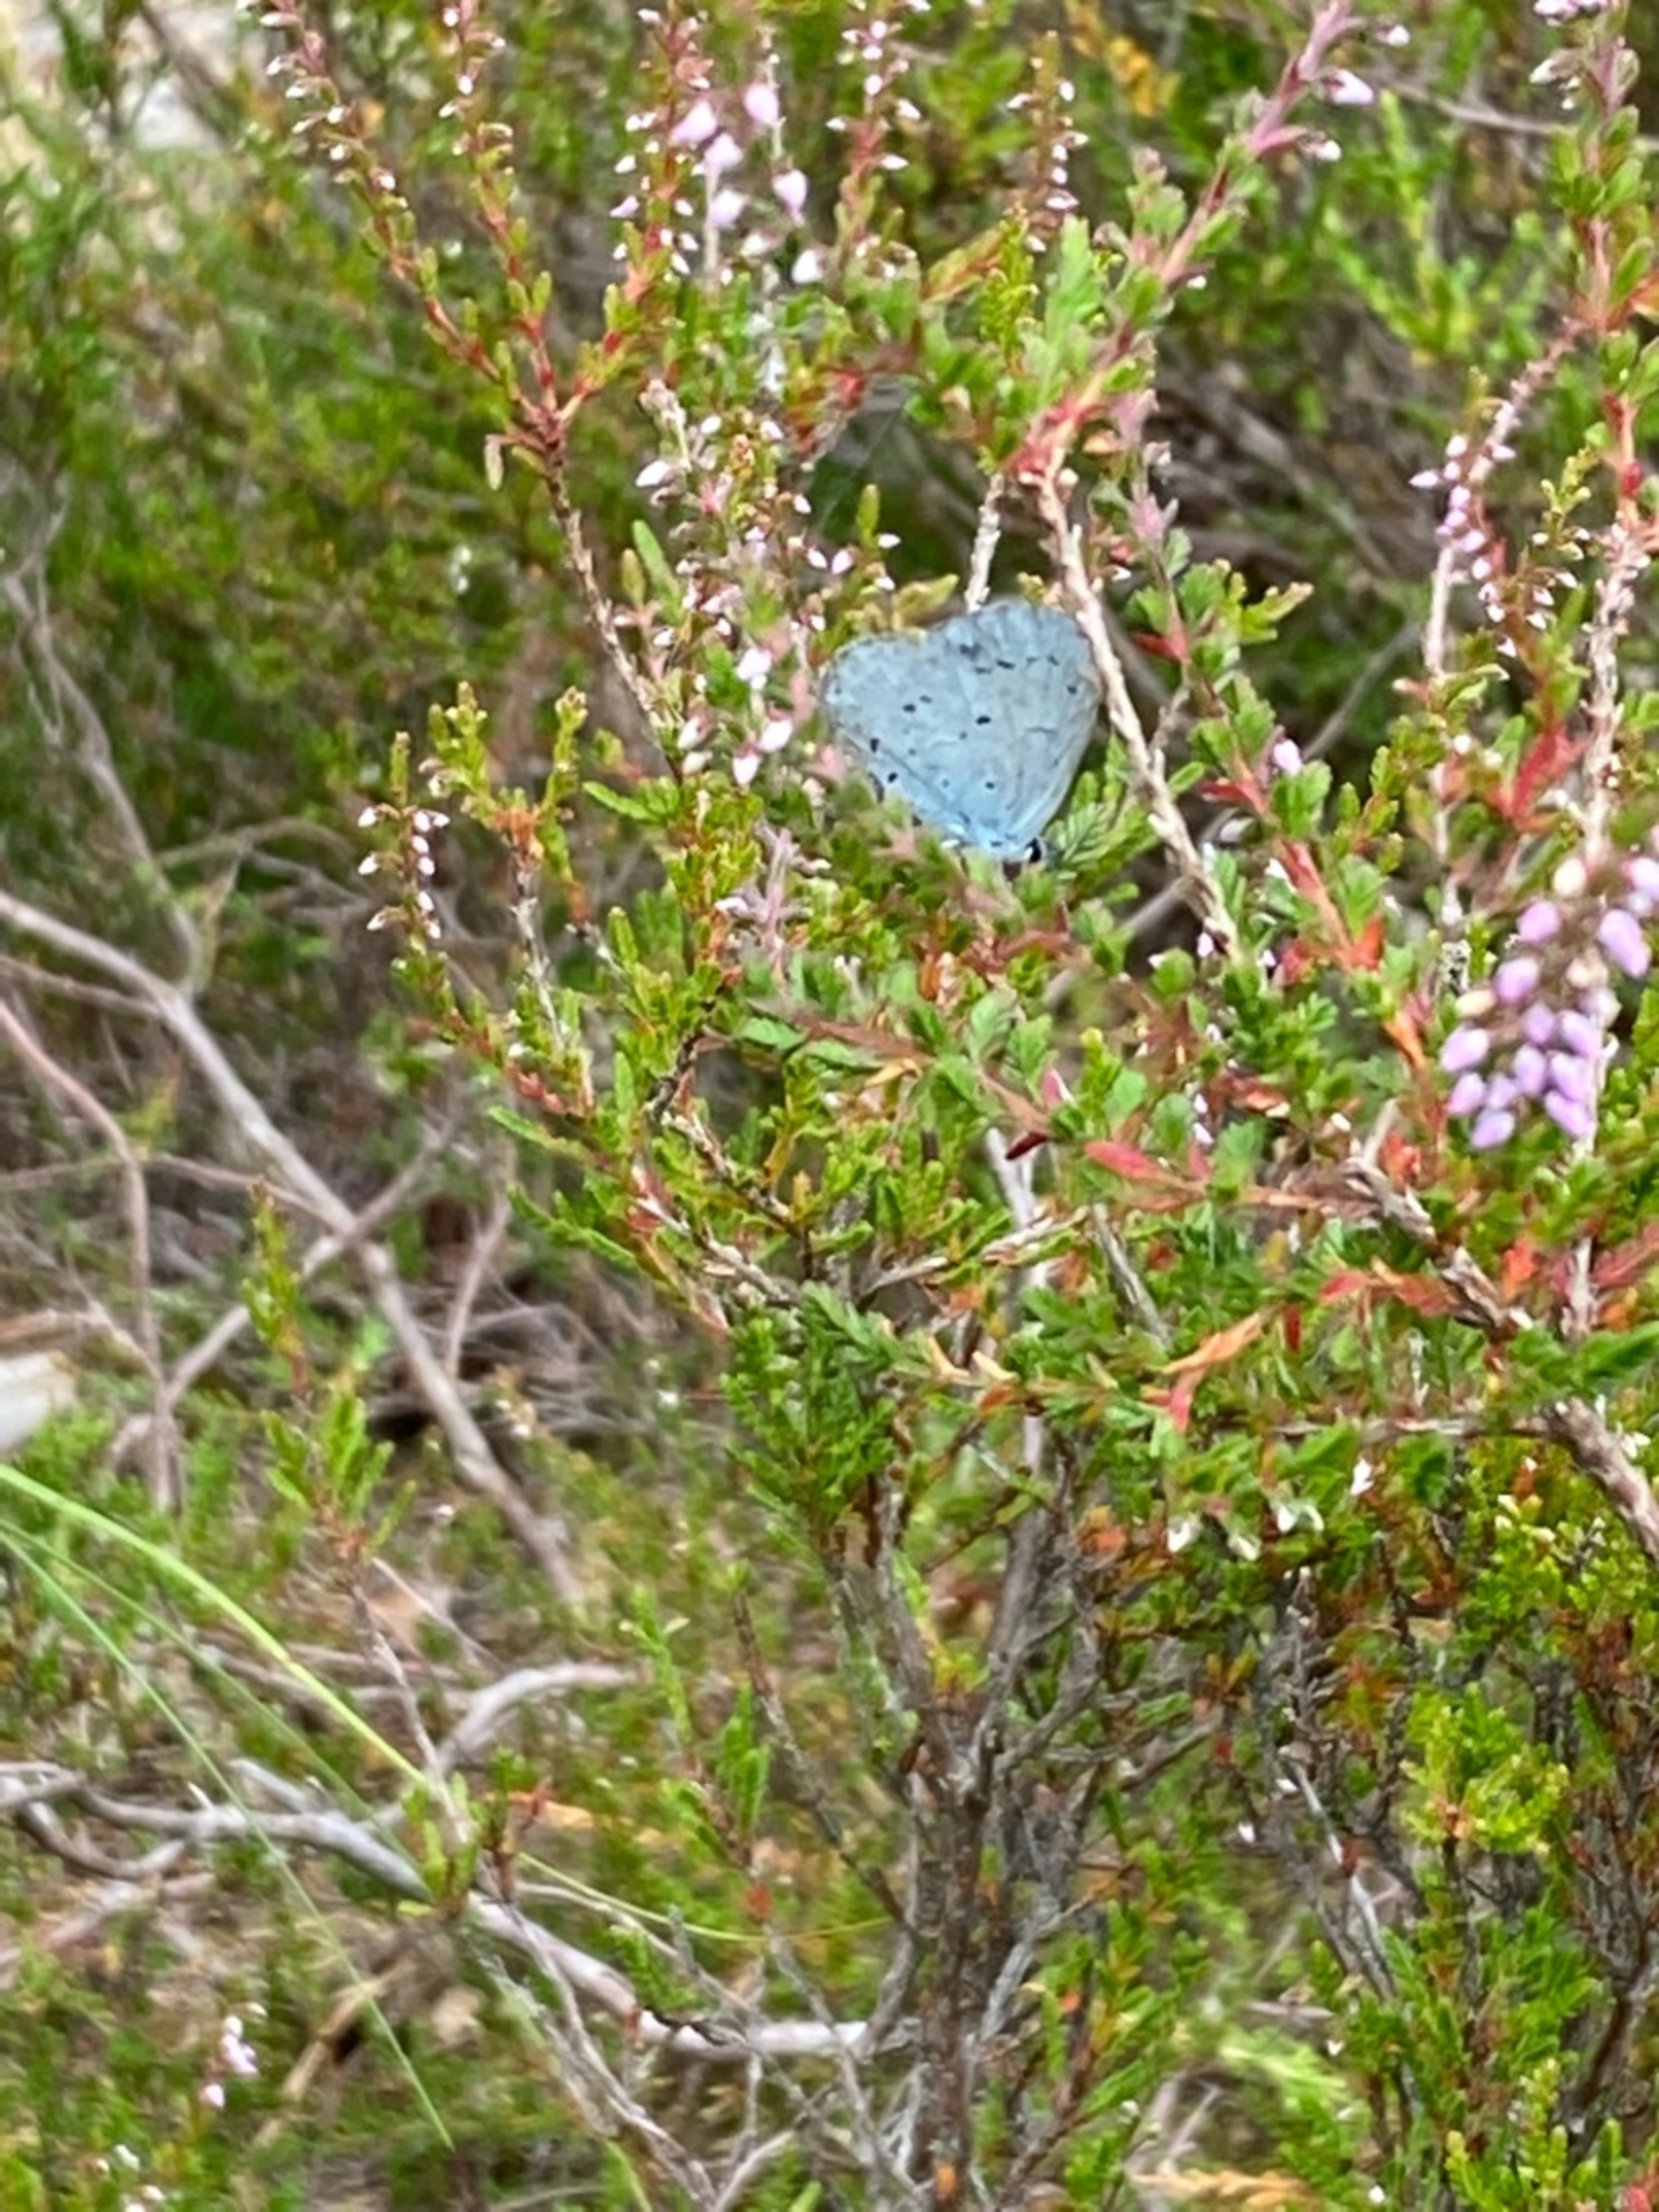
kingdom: Animalia
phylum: Arthropoda
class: Insecta
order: Lepidoptera
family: Lycaenidae
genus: Celastrina
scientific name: Celastrina argiolus
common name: Skovblåfugl
